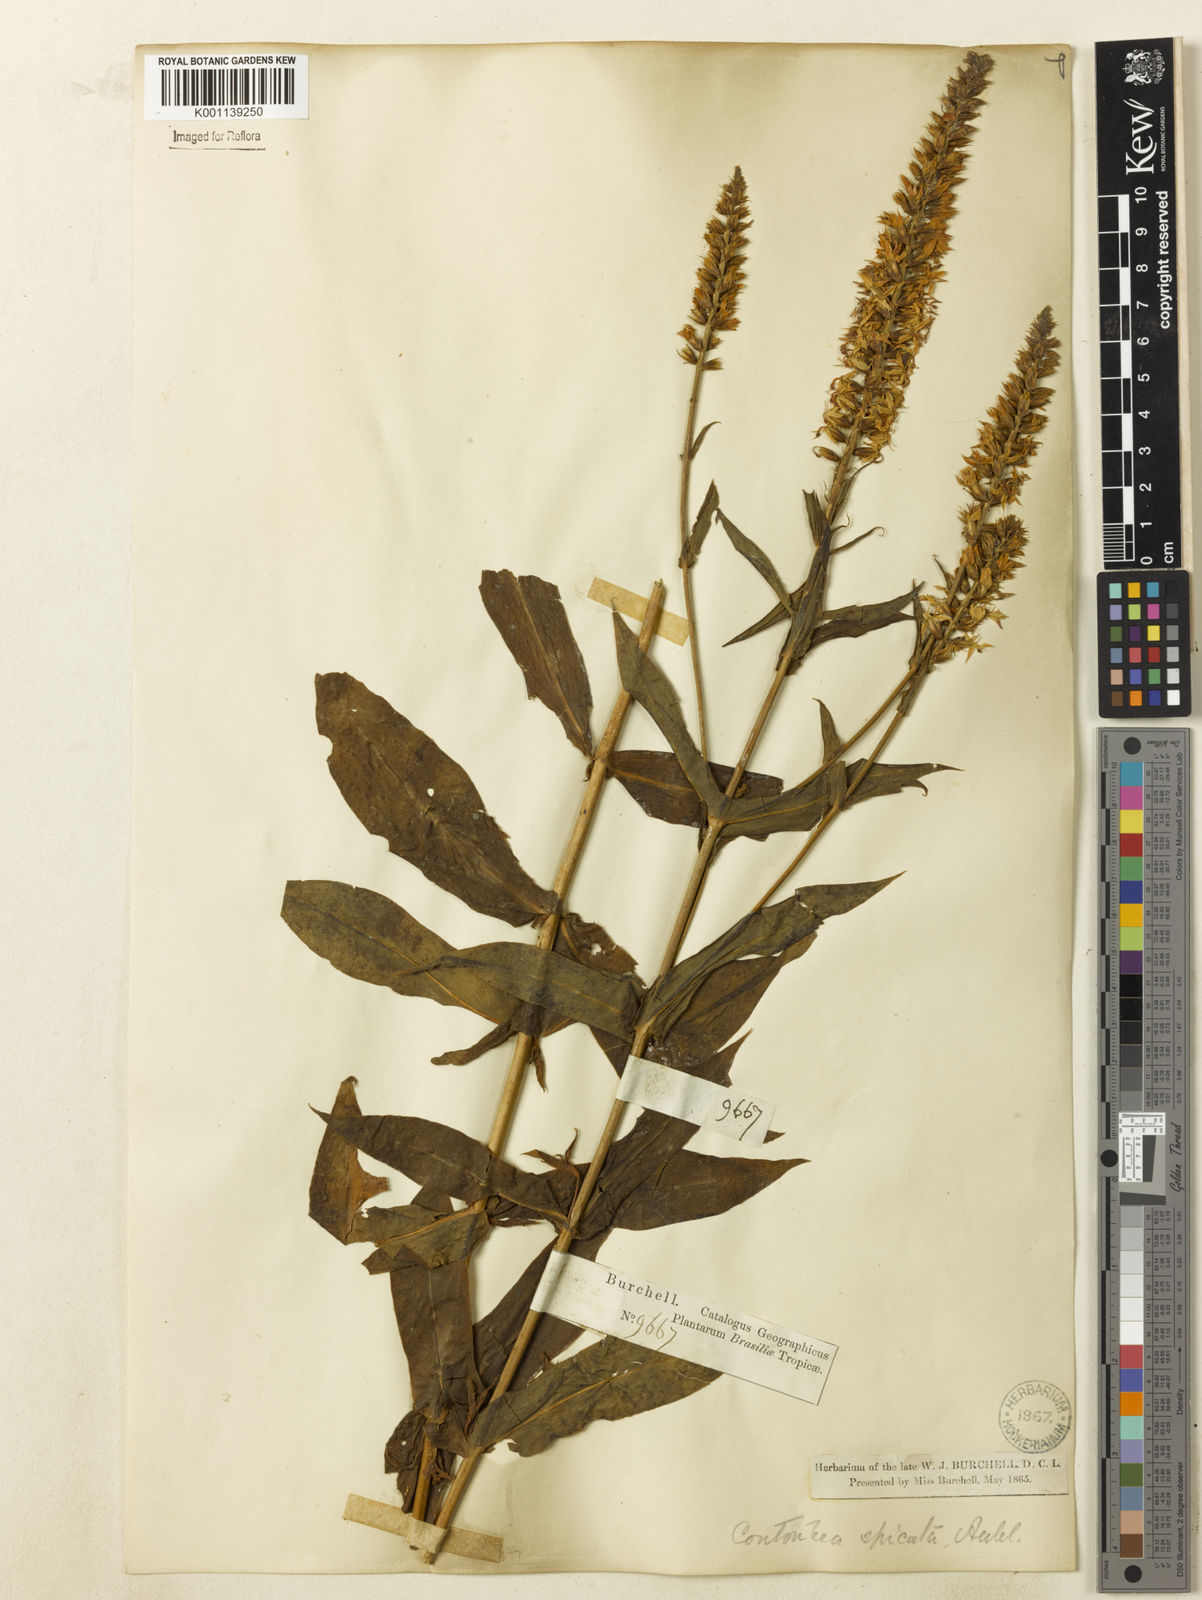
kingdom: Plantae
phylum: Tracheophyta
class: Magnoliopsida
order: Gentianales
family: Gentianaceae
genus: Coutoubea
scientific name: Coutoubea spicata
